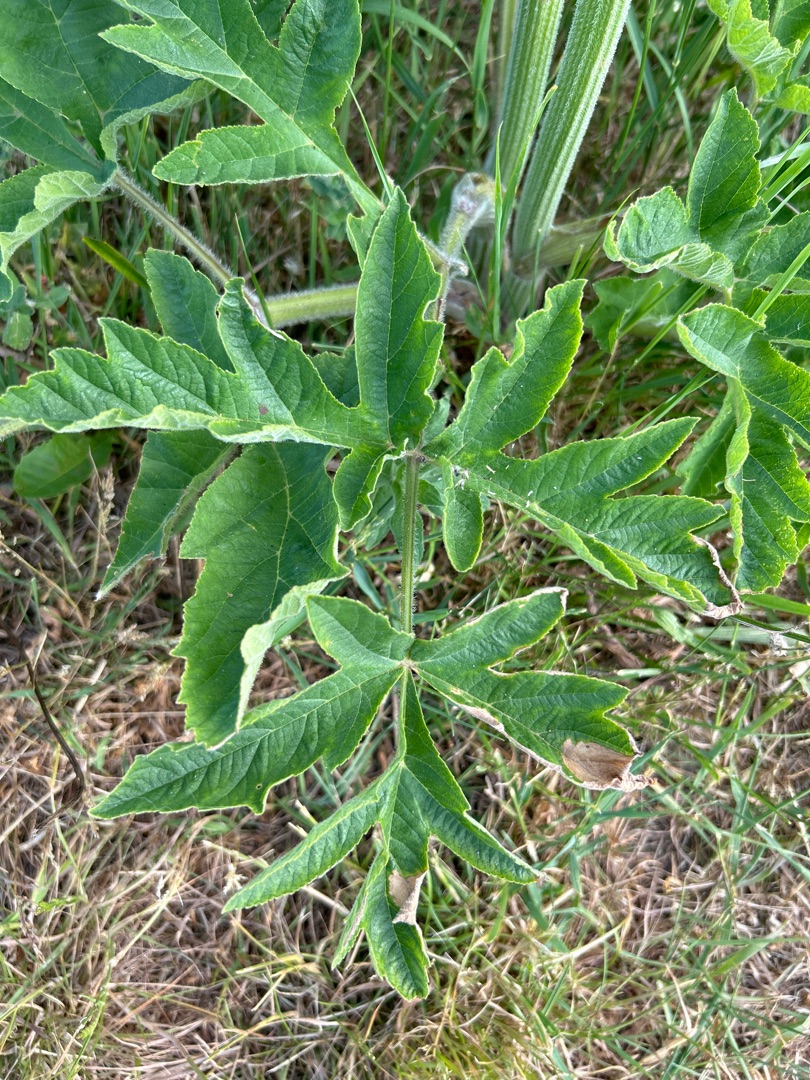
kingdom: Plantae
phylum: Tracheophyta
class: Magnoliopsida
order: Apiales
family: Apiaceae
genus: Heracleum
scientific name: Heracleum sphondylium
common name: Almindelig bjørneklo
